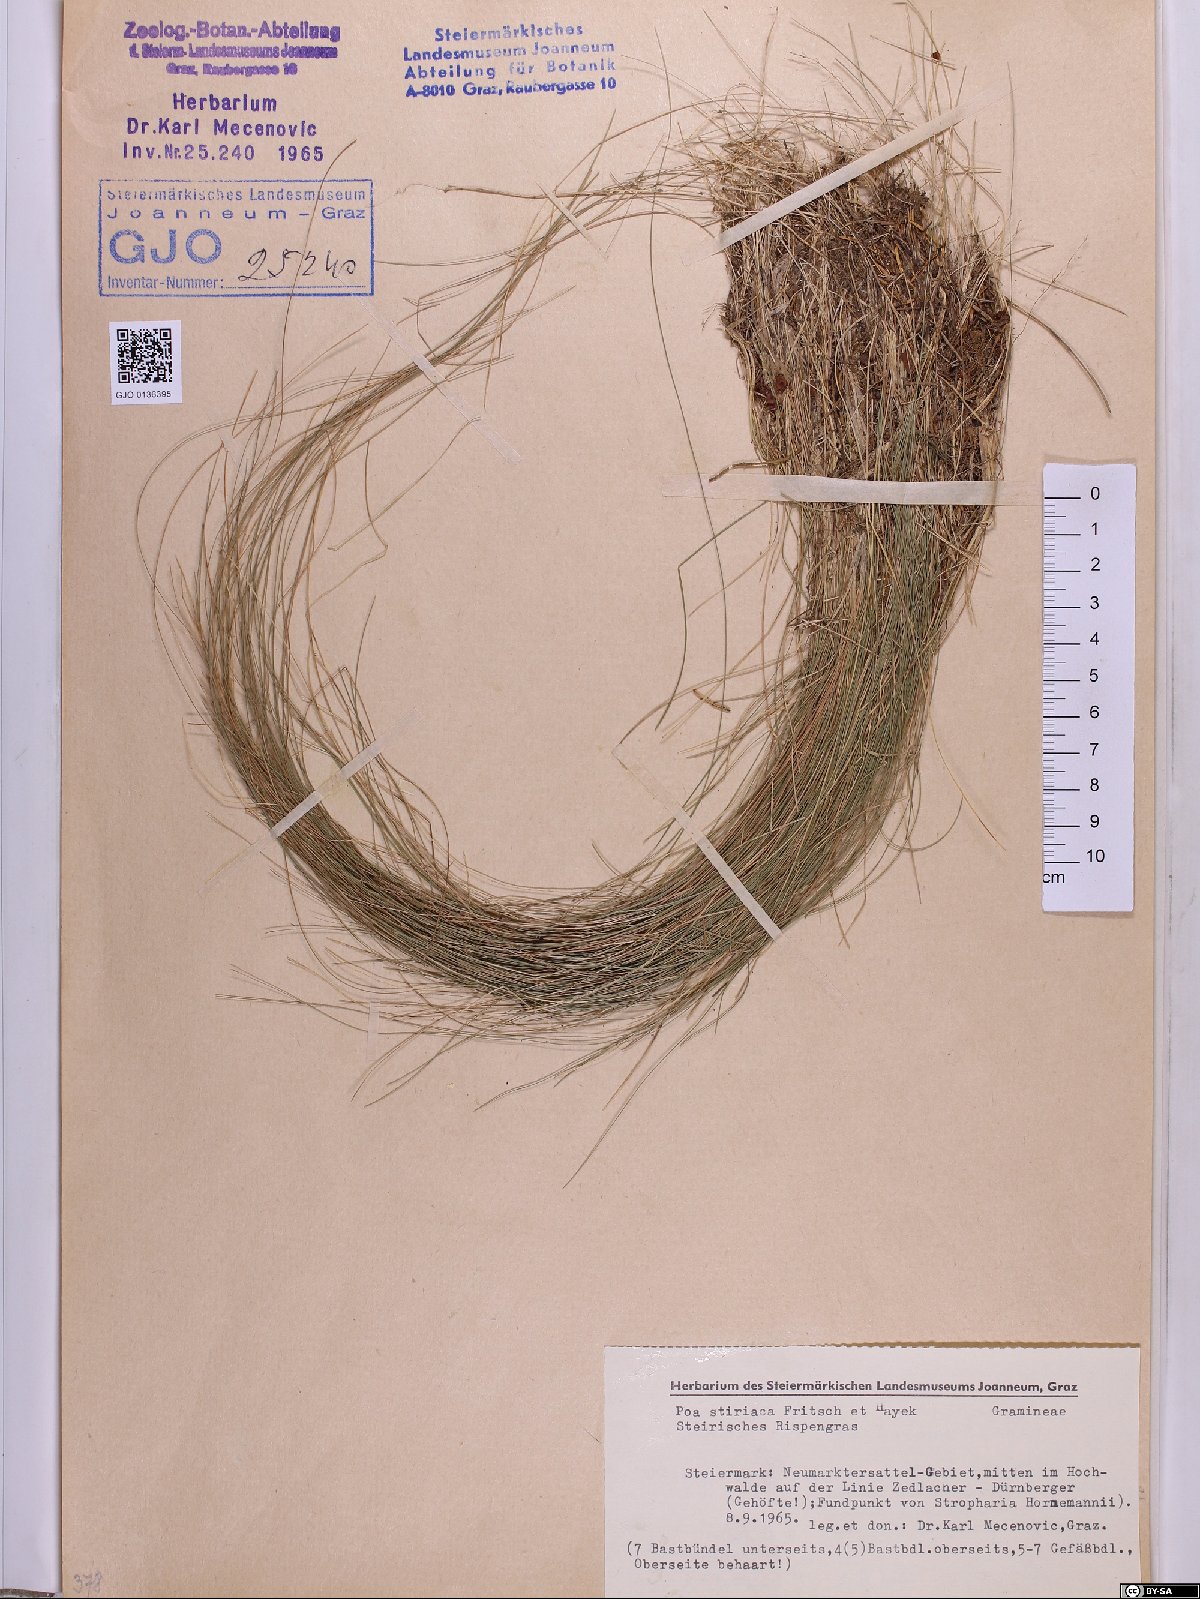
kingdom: Plantae
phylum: Tracheophyta
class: Liliopsida
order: Poales
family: Poaceae
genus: Poa
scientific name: Poa stiriaca
